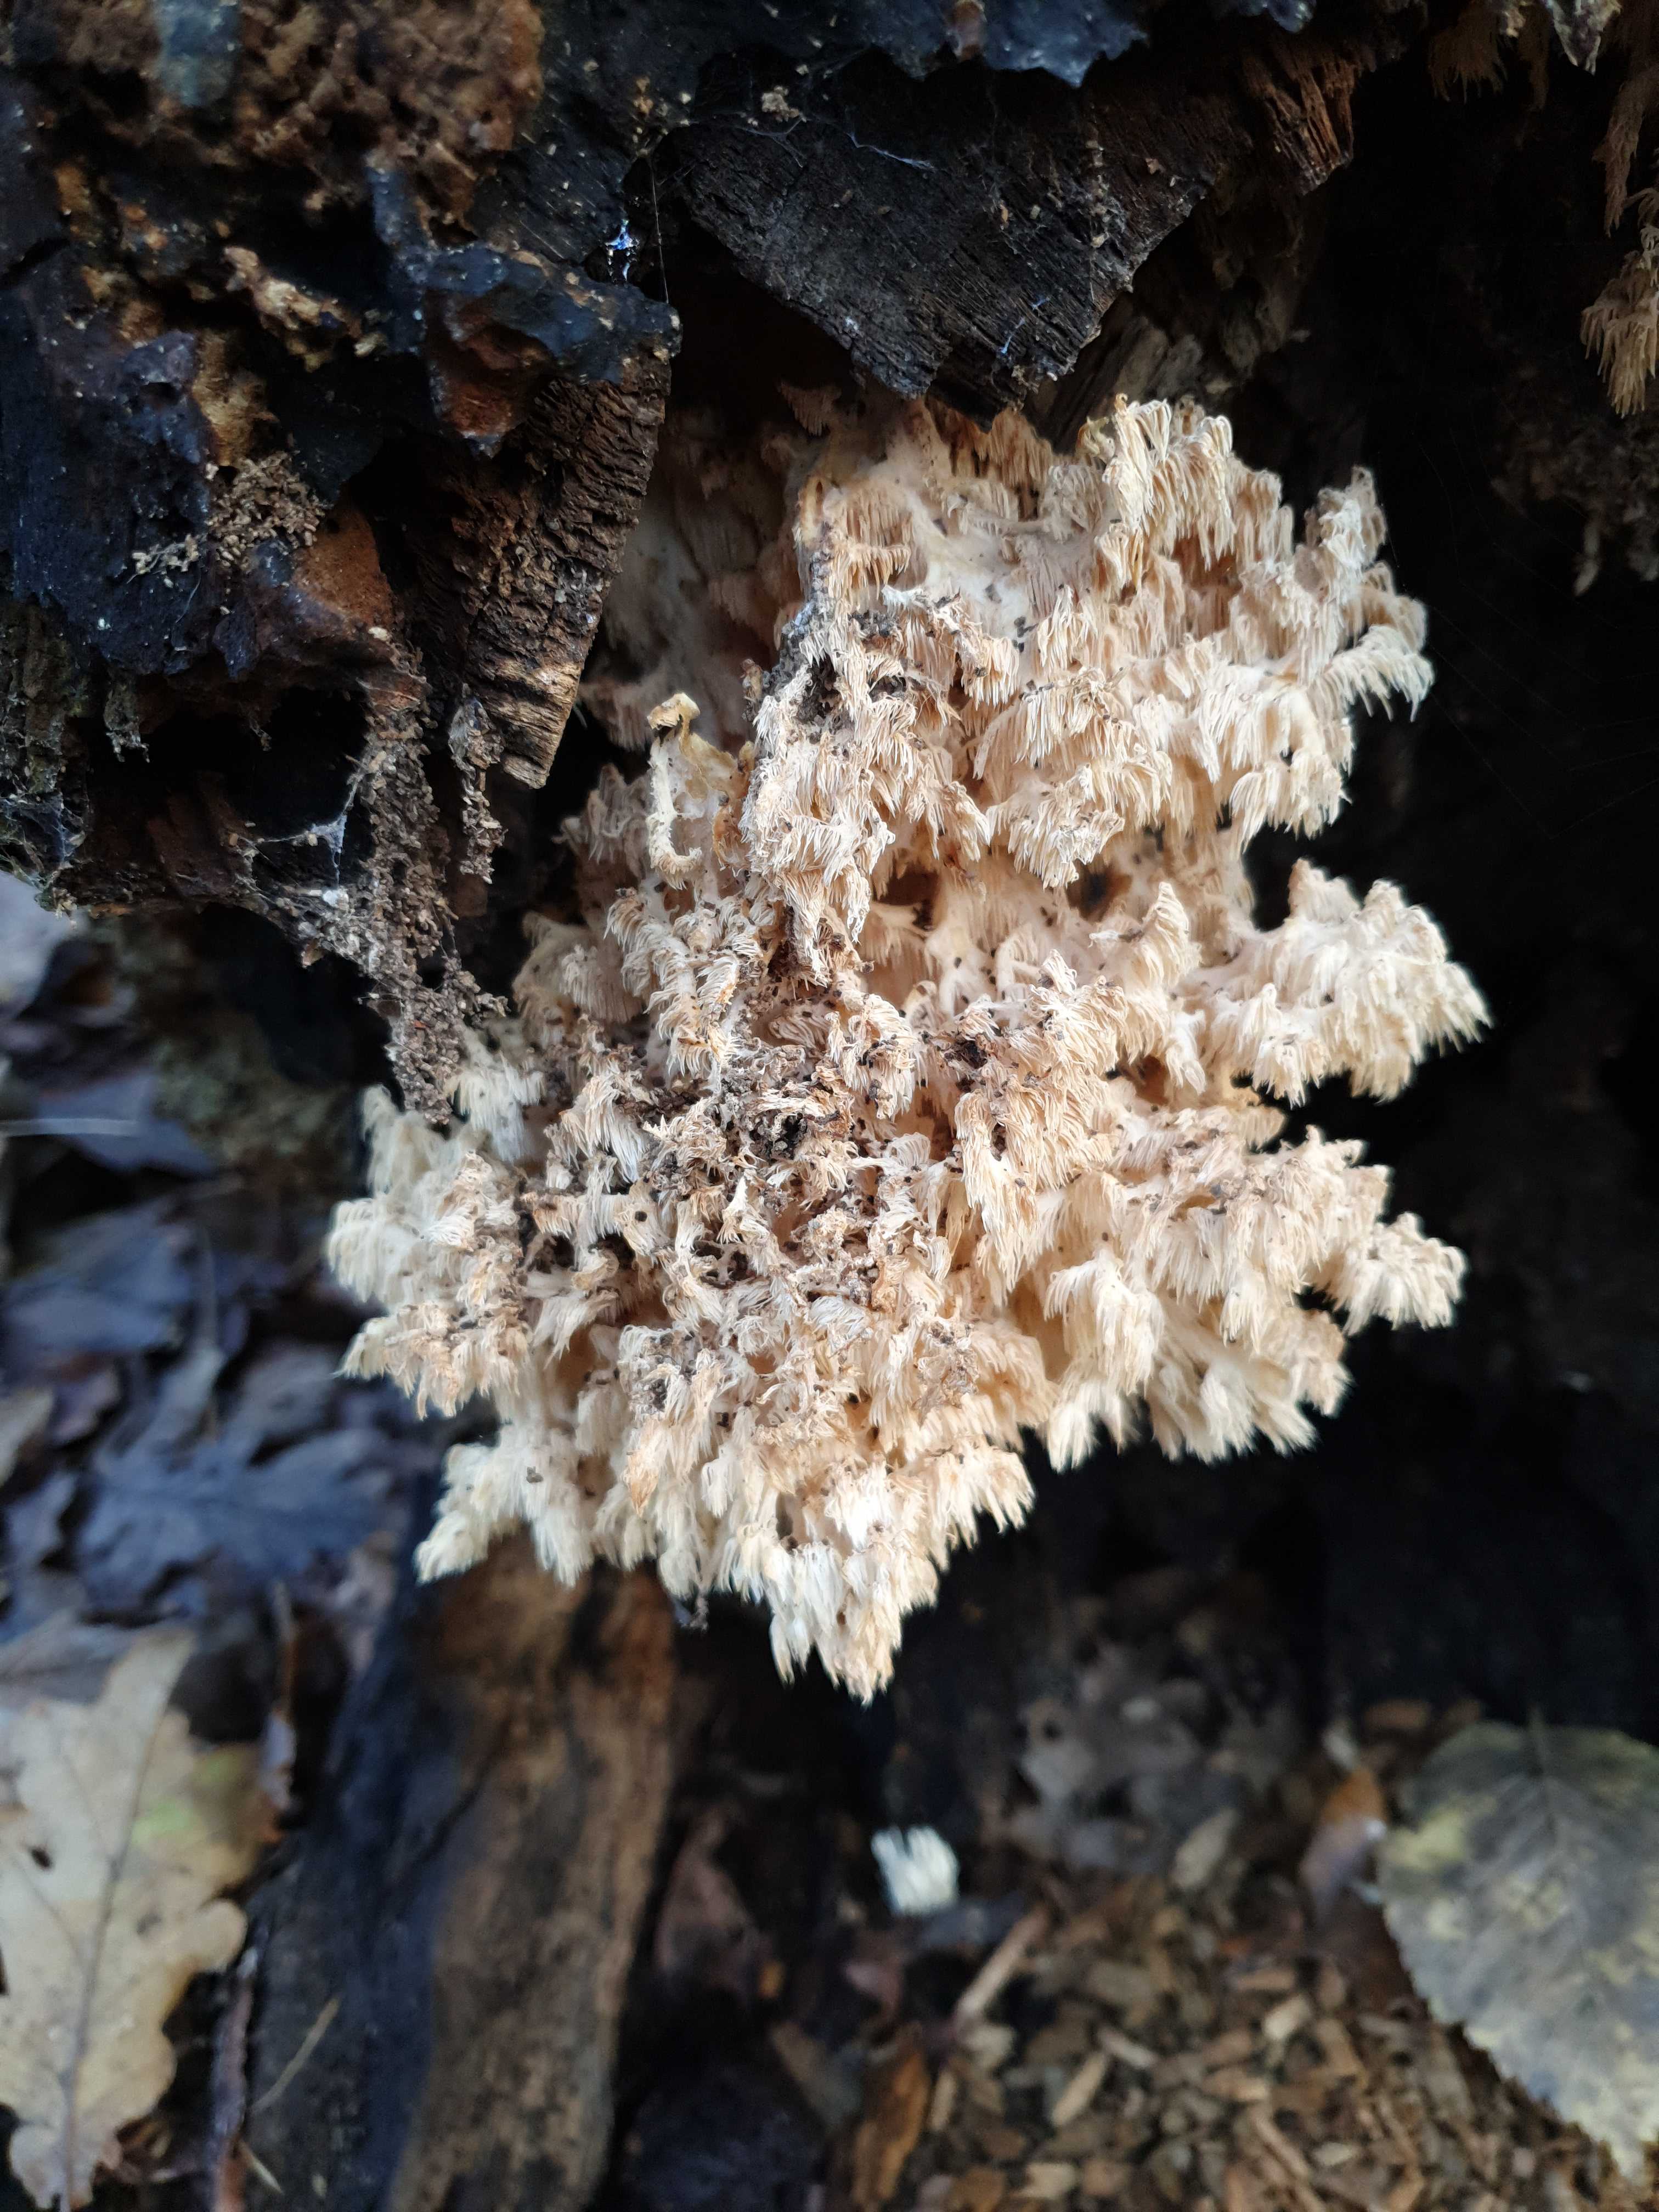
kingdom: Fungi
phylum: Basidiomycota
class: Agaricomycetes
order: Russulales
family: Hericiaceae
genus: Hericium
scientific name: Hericium coralloides
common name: koralpigsvamp
